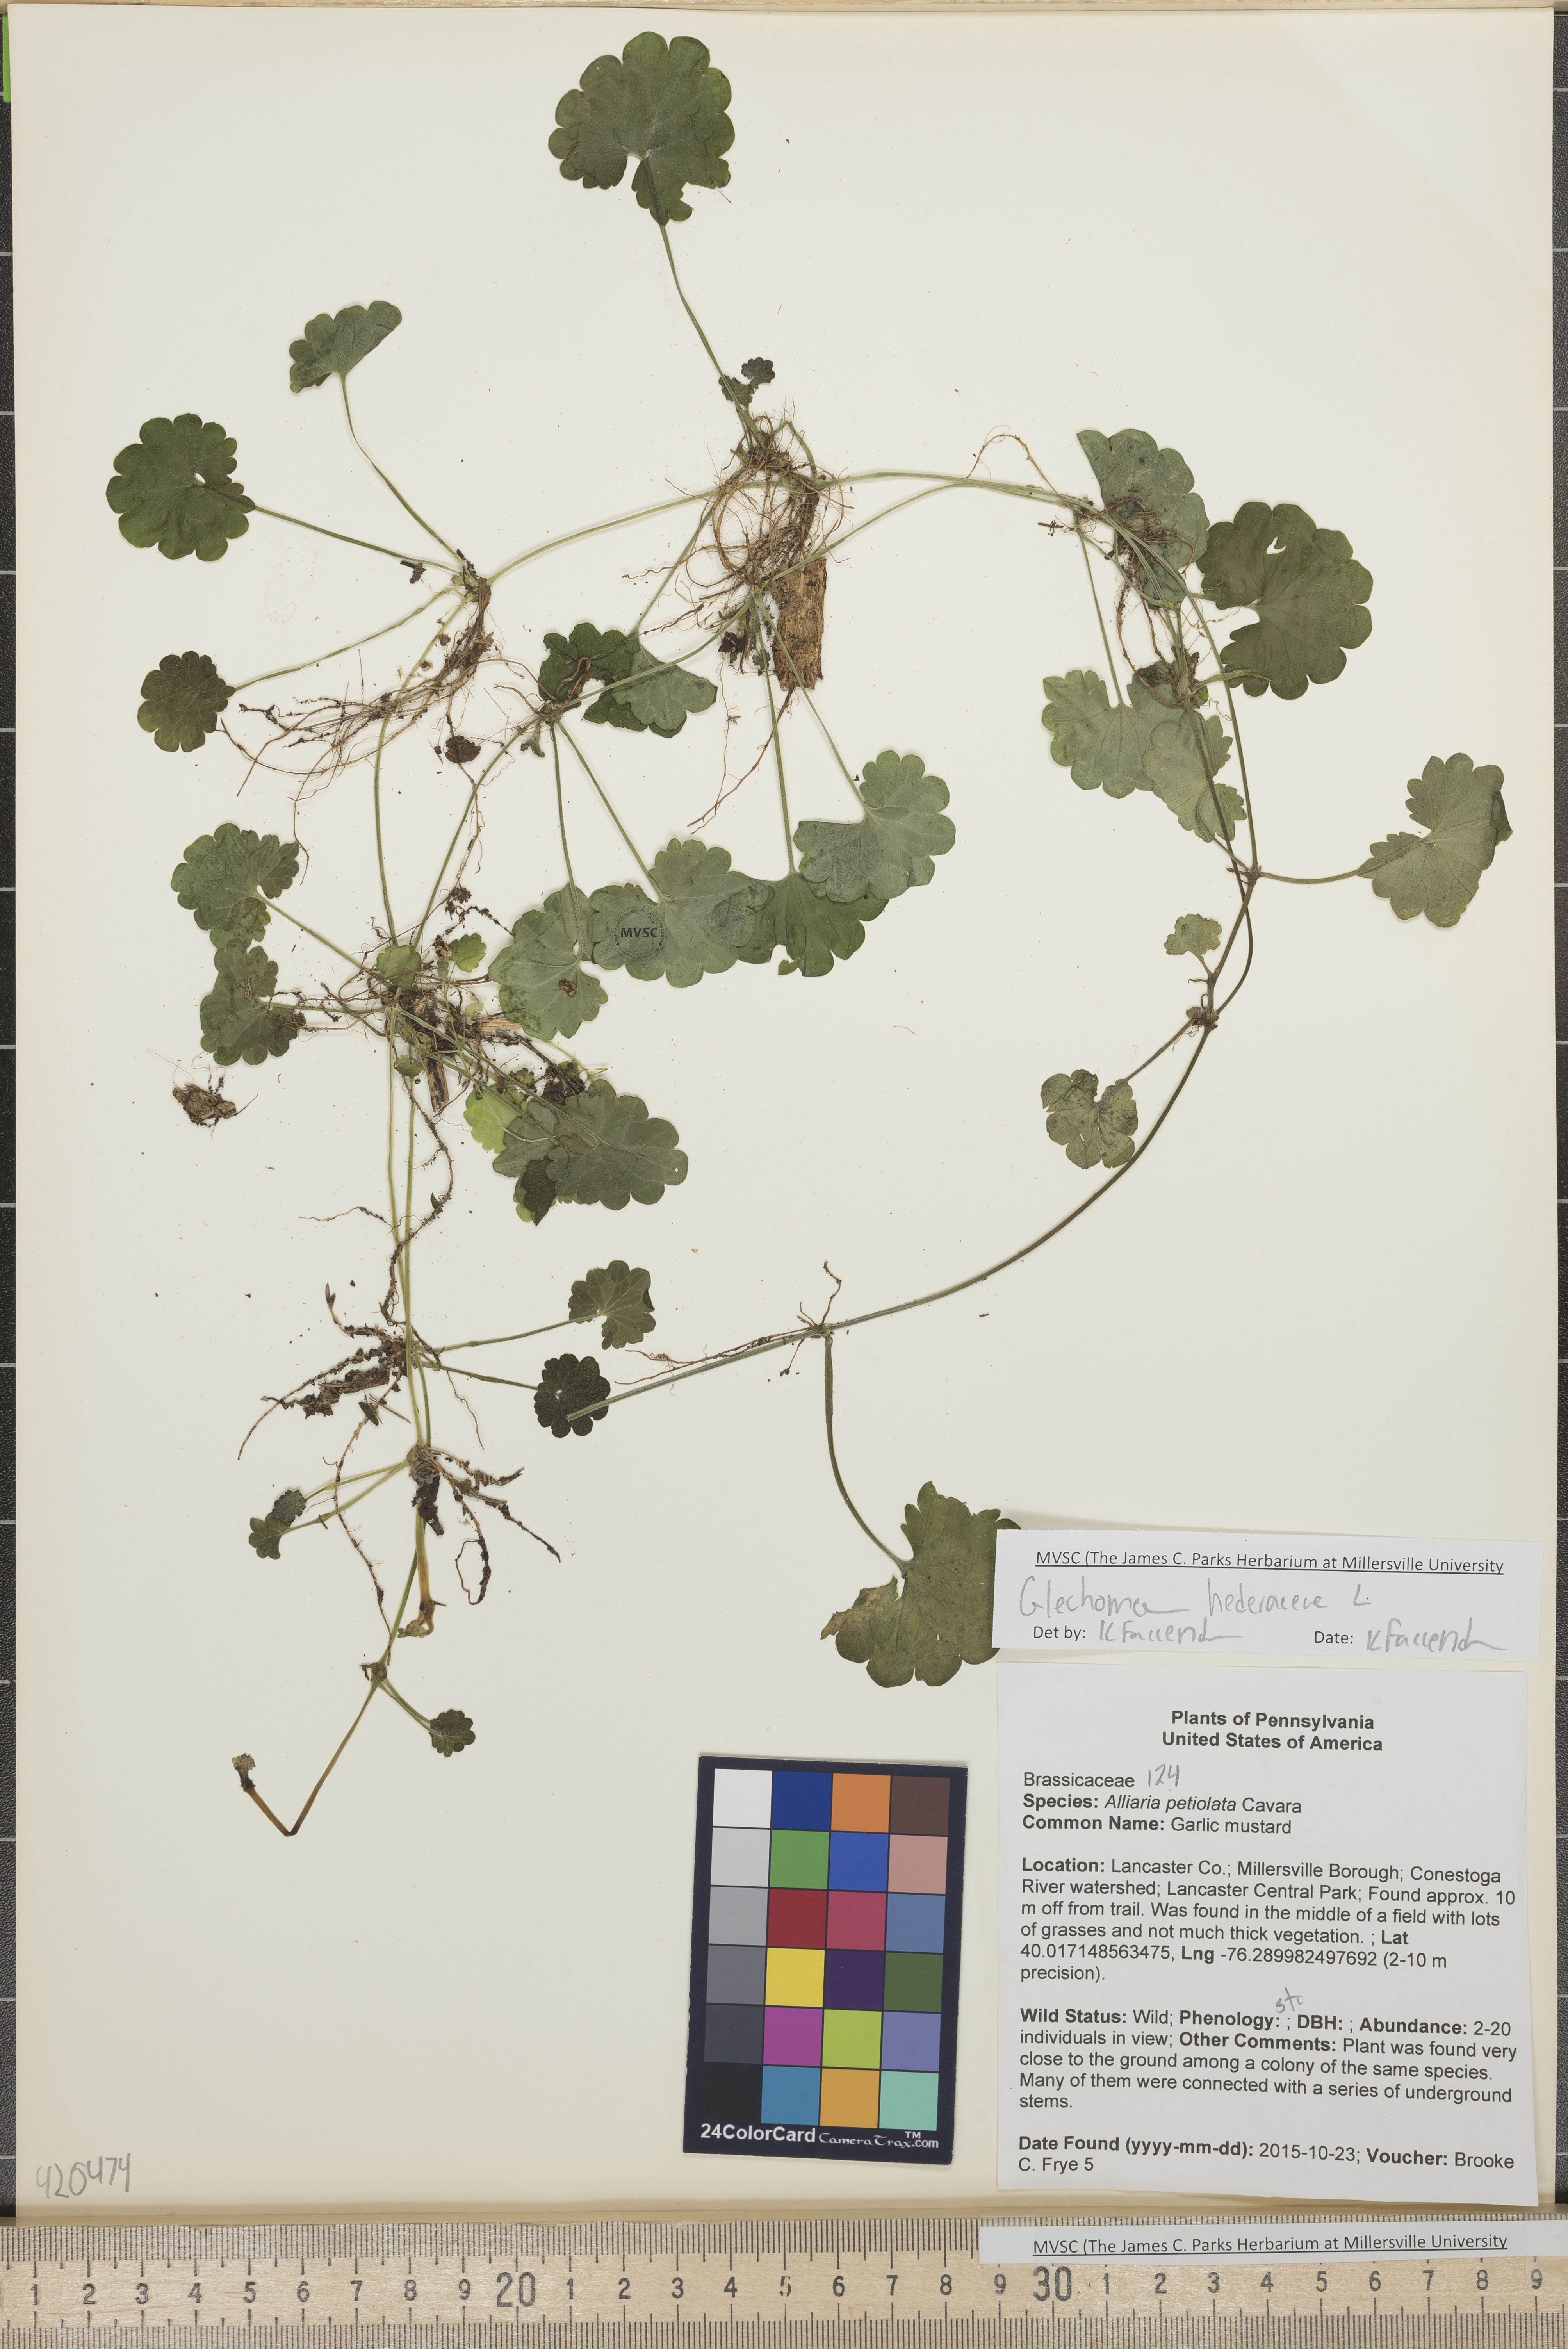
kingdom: Plantae
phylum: Tracheophyta
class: Magnoliopsida
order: Lamiales
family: Lamiaceae
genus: Glechoma
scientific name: Glechoma hederacea
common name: Ground-ivy
